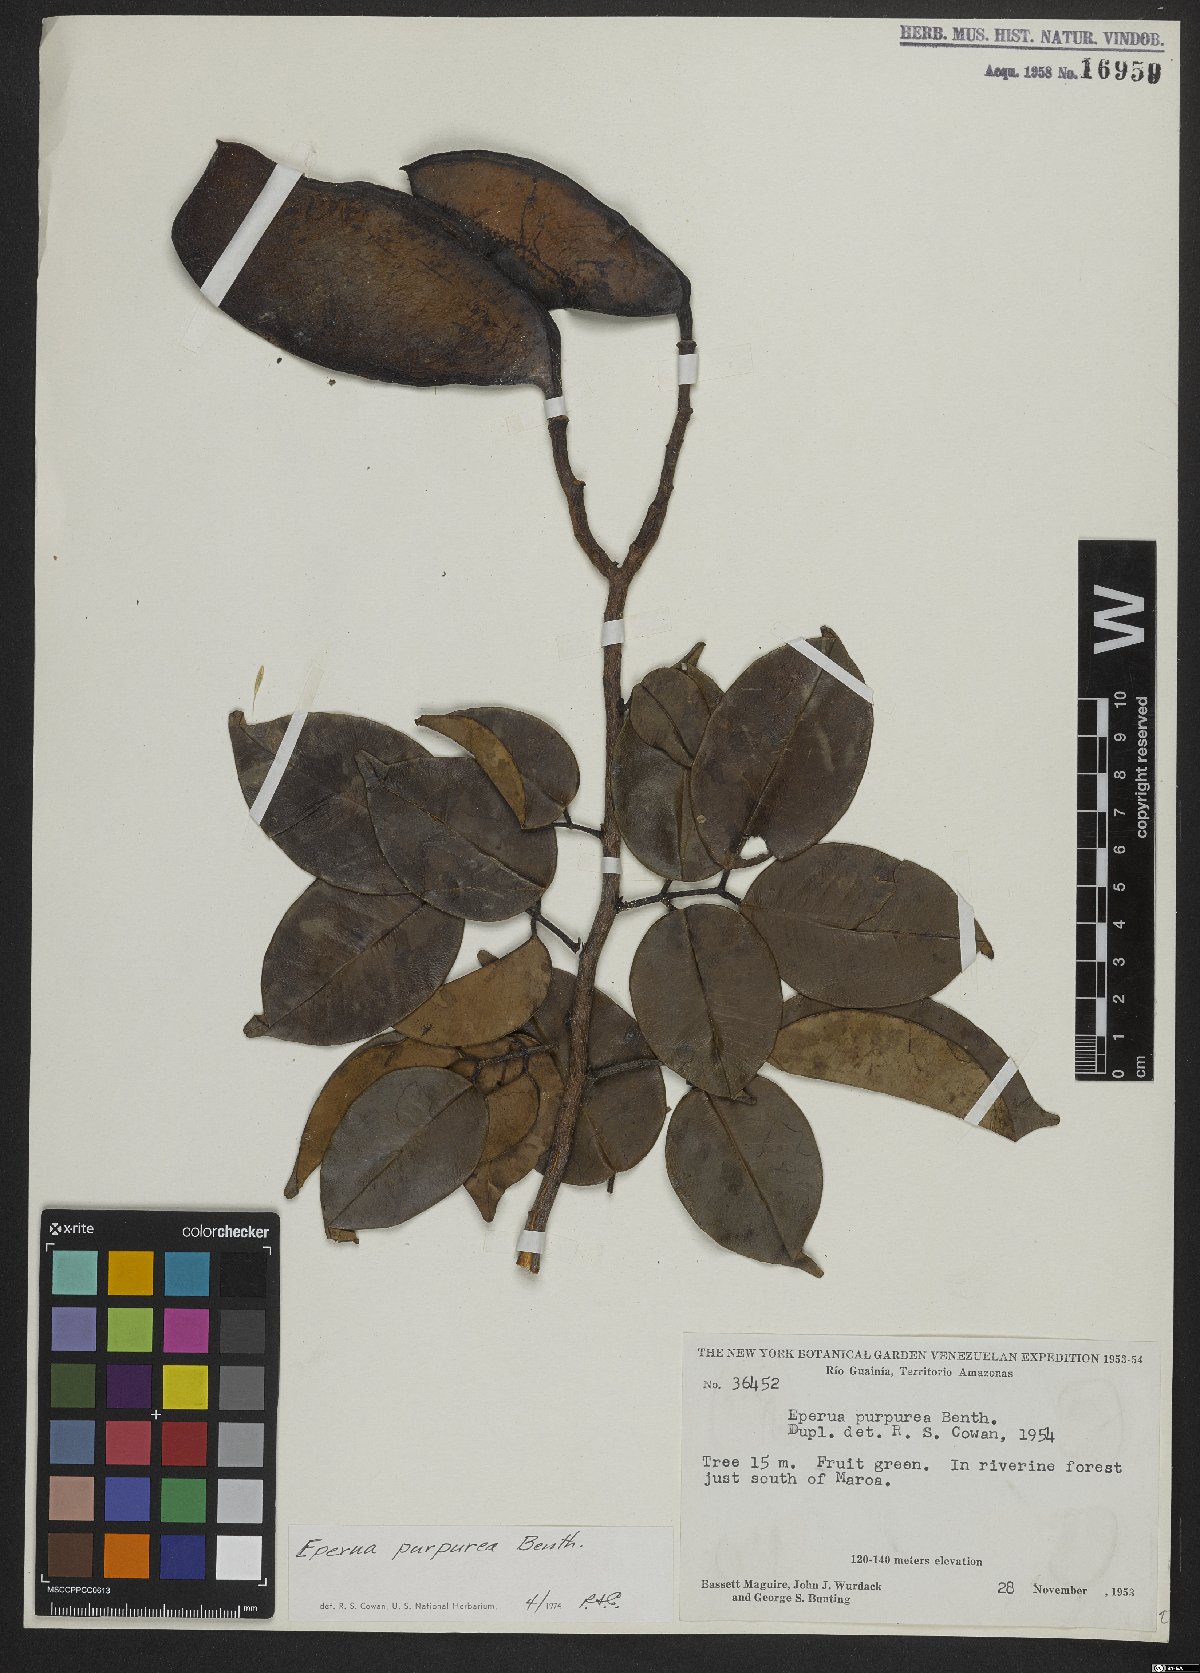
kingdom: Plantae
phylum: Tracheophyta
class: Magnoliopsida
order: Fabales
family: Fabaceae
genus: Eperua
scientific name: Eperua purpurea
